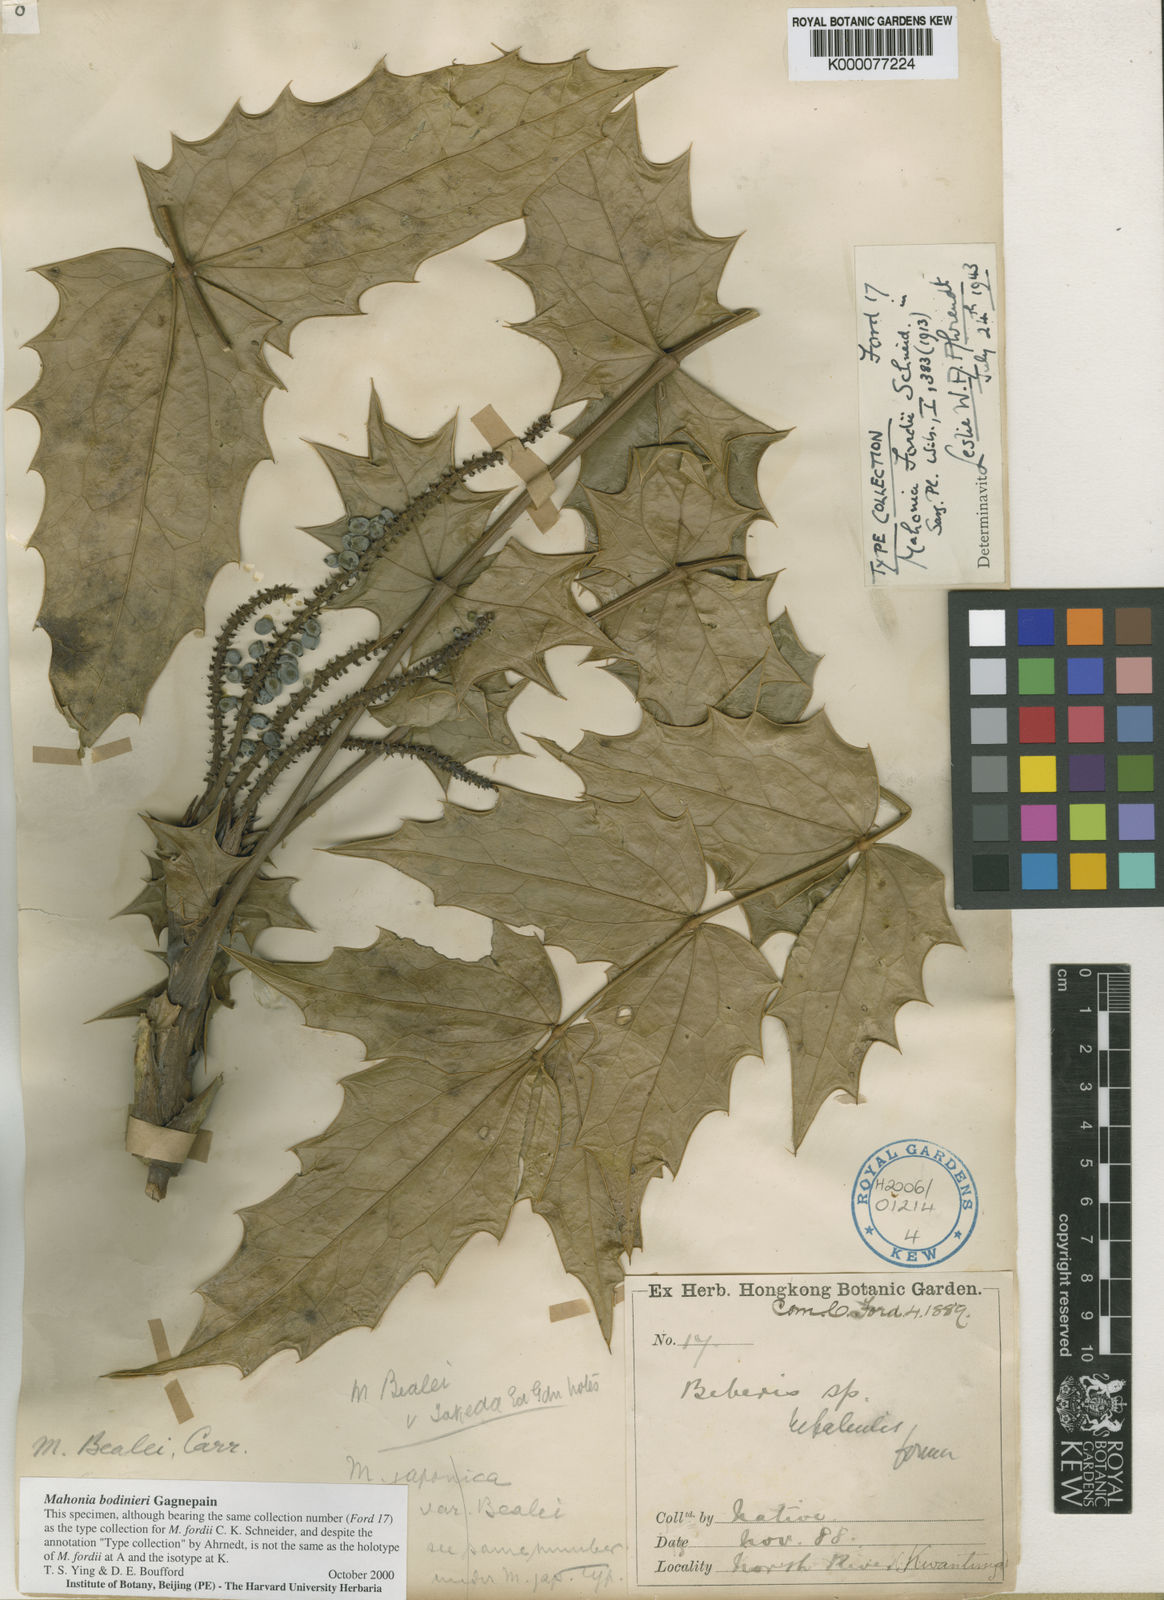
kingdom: Plantae
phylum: Tracheophyta
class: Magnoliopsida
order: Ranunculales
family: Berberidaceae
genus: Berberis
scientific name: Berberis fordii
